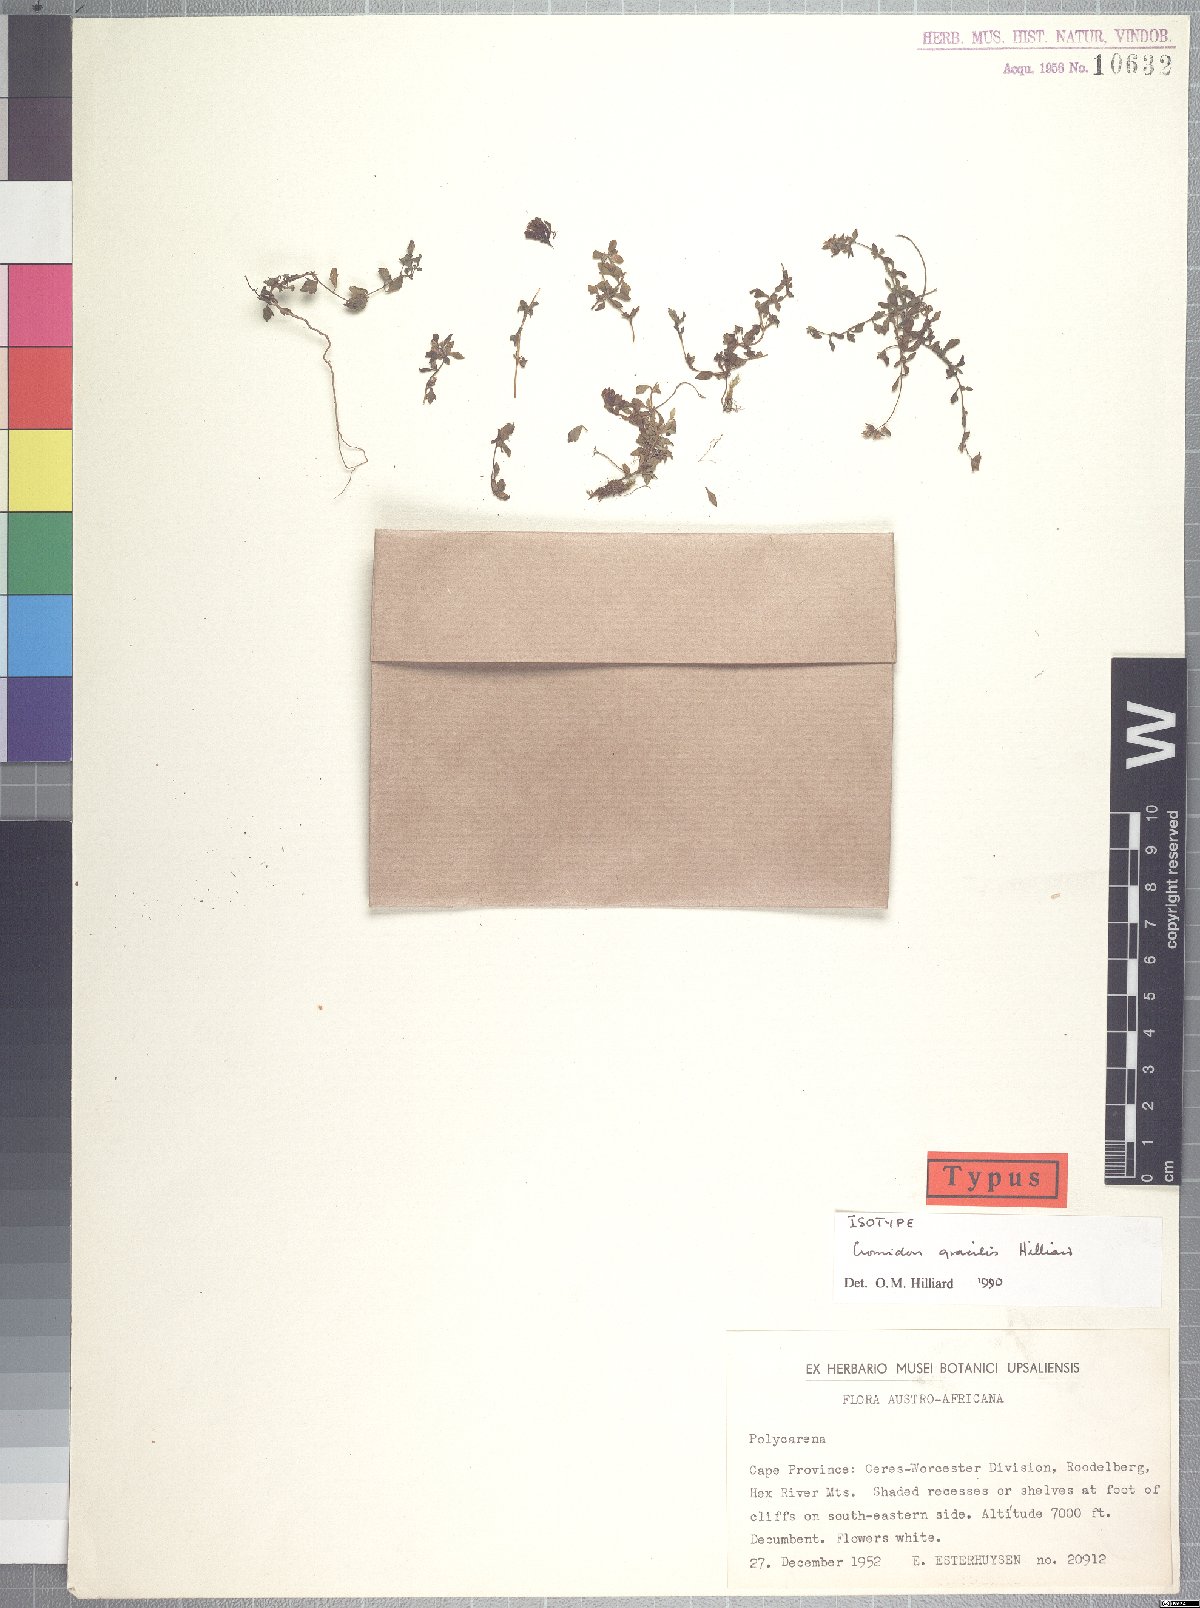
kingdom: Plantae
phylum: Tracheophyta
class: Magnoliopsida
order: Lamiales
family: Scrophulariaceae
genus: Cromidon
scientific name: Cromidon gracile
